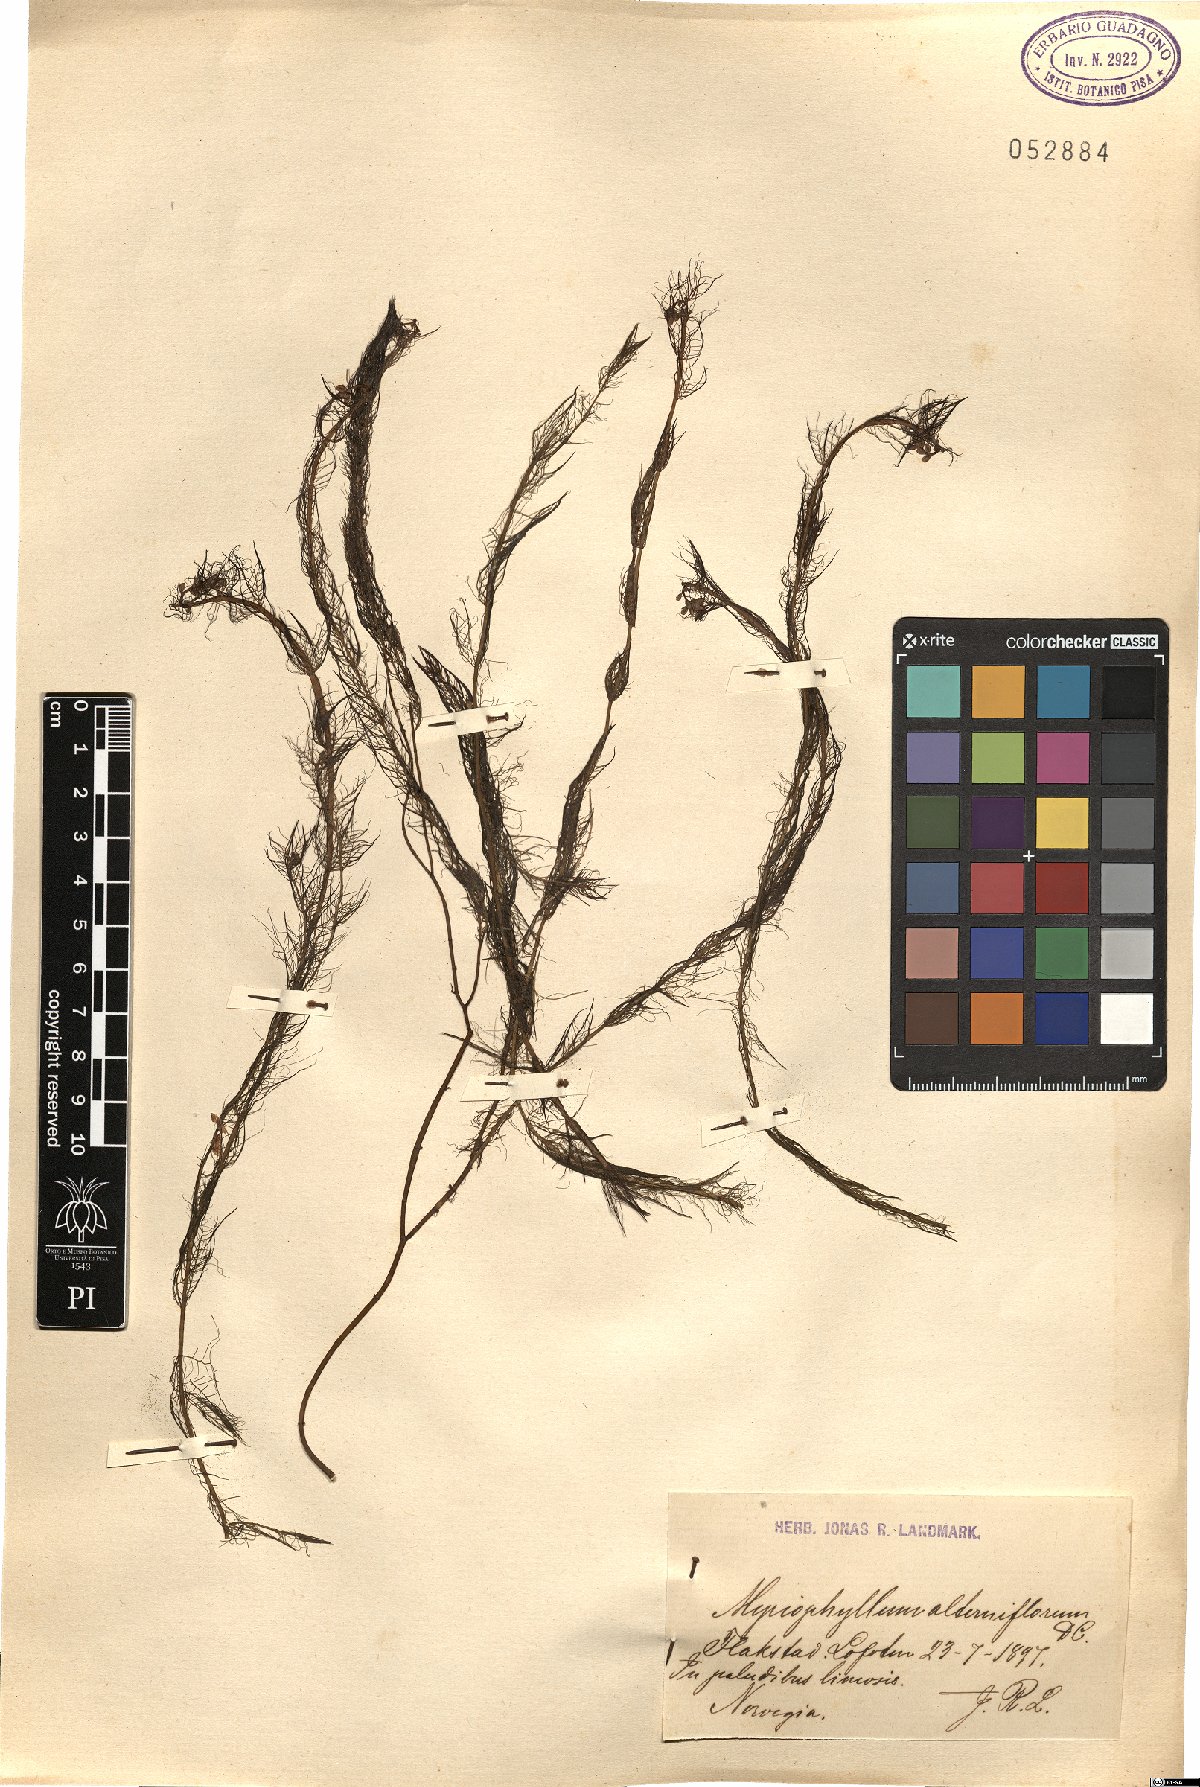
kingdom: Plantae
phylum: Tracheophyta
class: Magnoliopsida
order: Saxifragales
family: Haloragaceae
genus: Myriophyllum
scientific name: Myriophyllum alterniflorum
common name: Alternate water-milfoil
